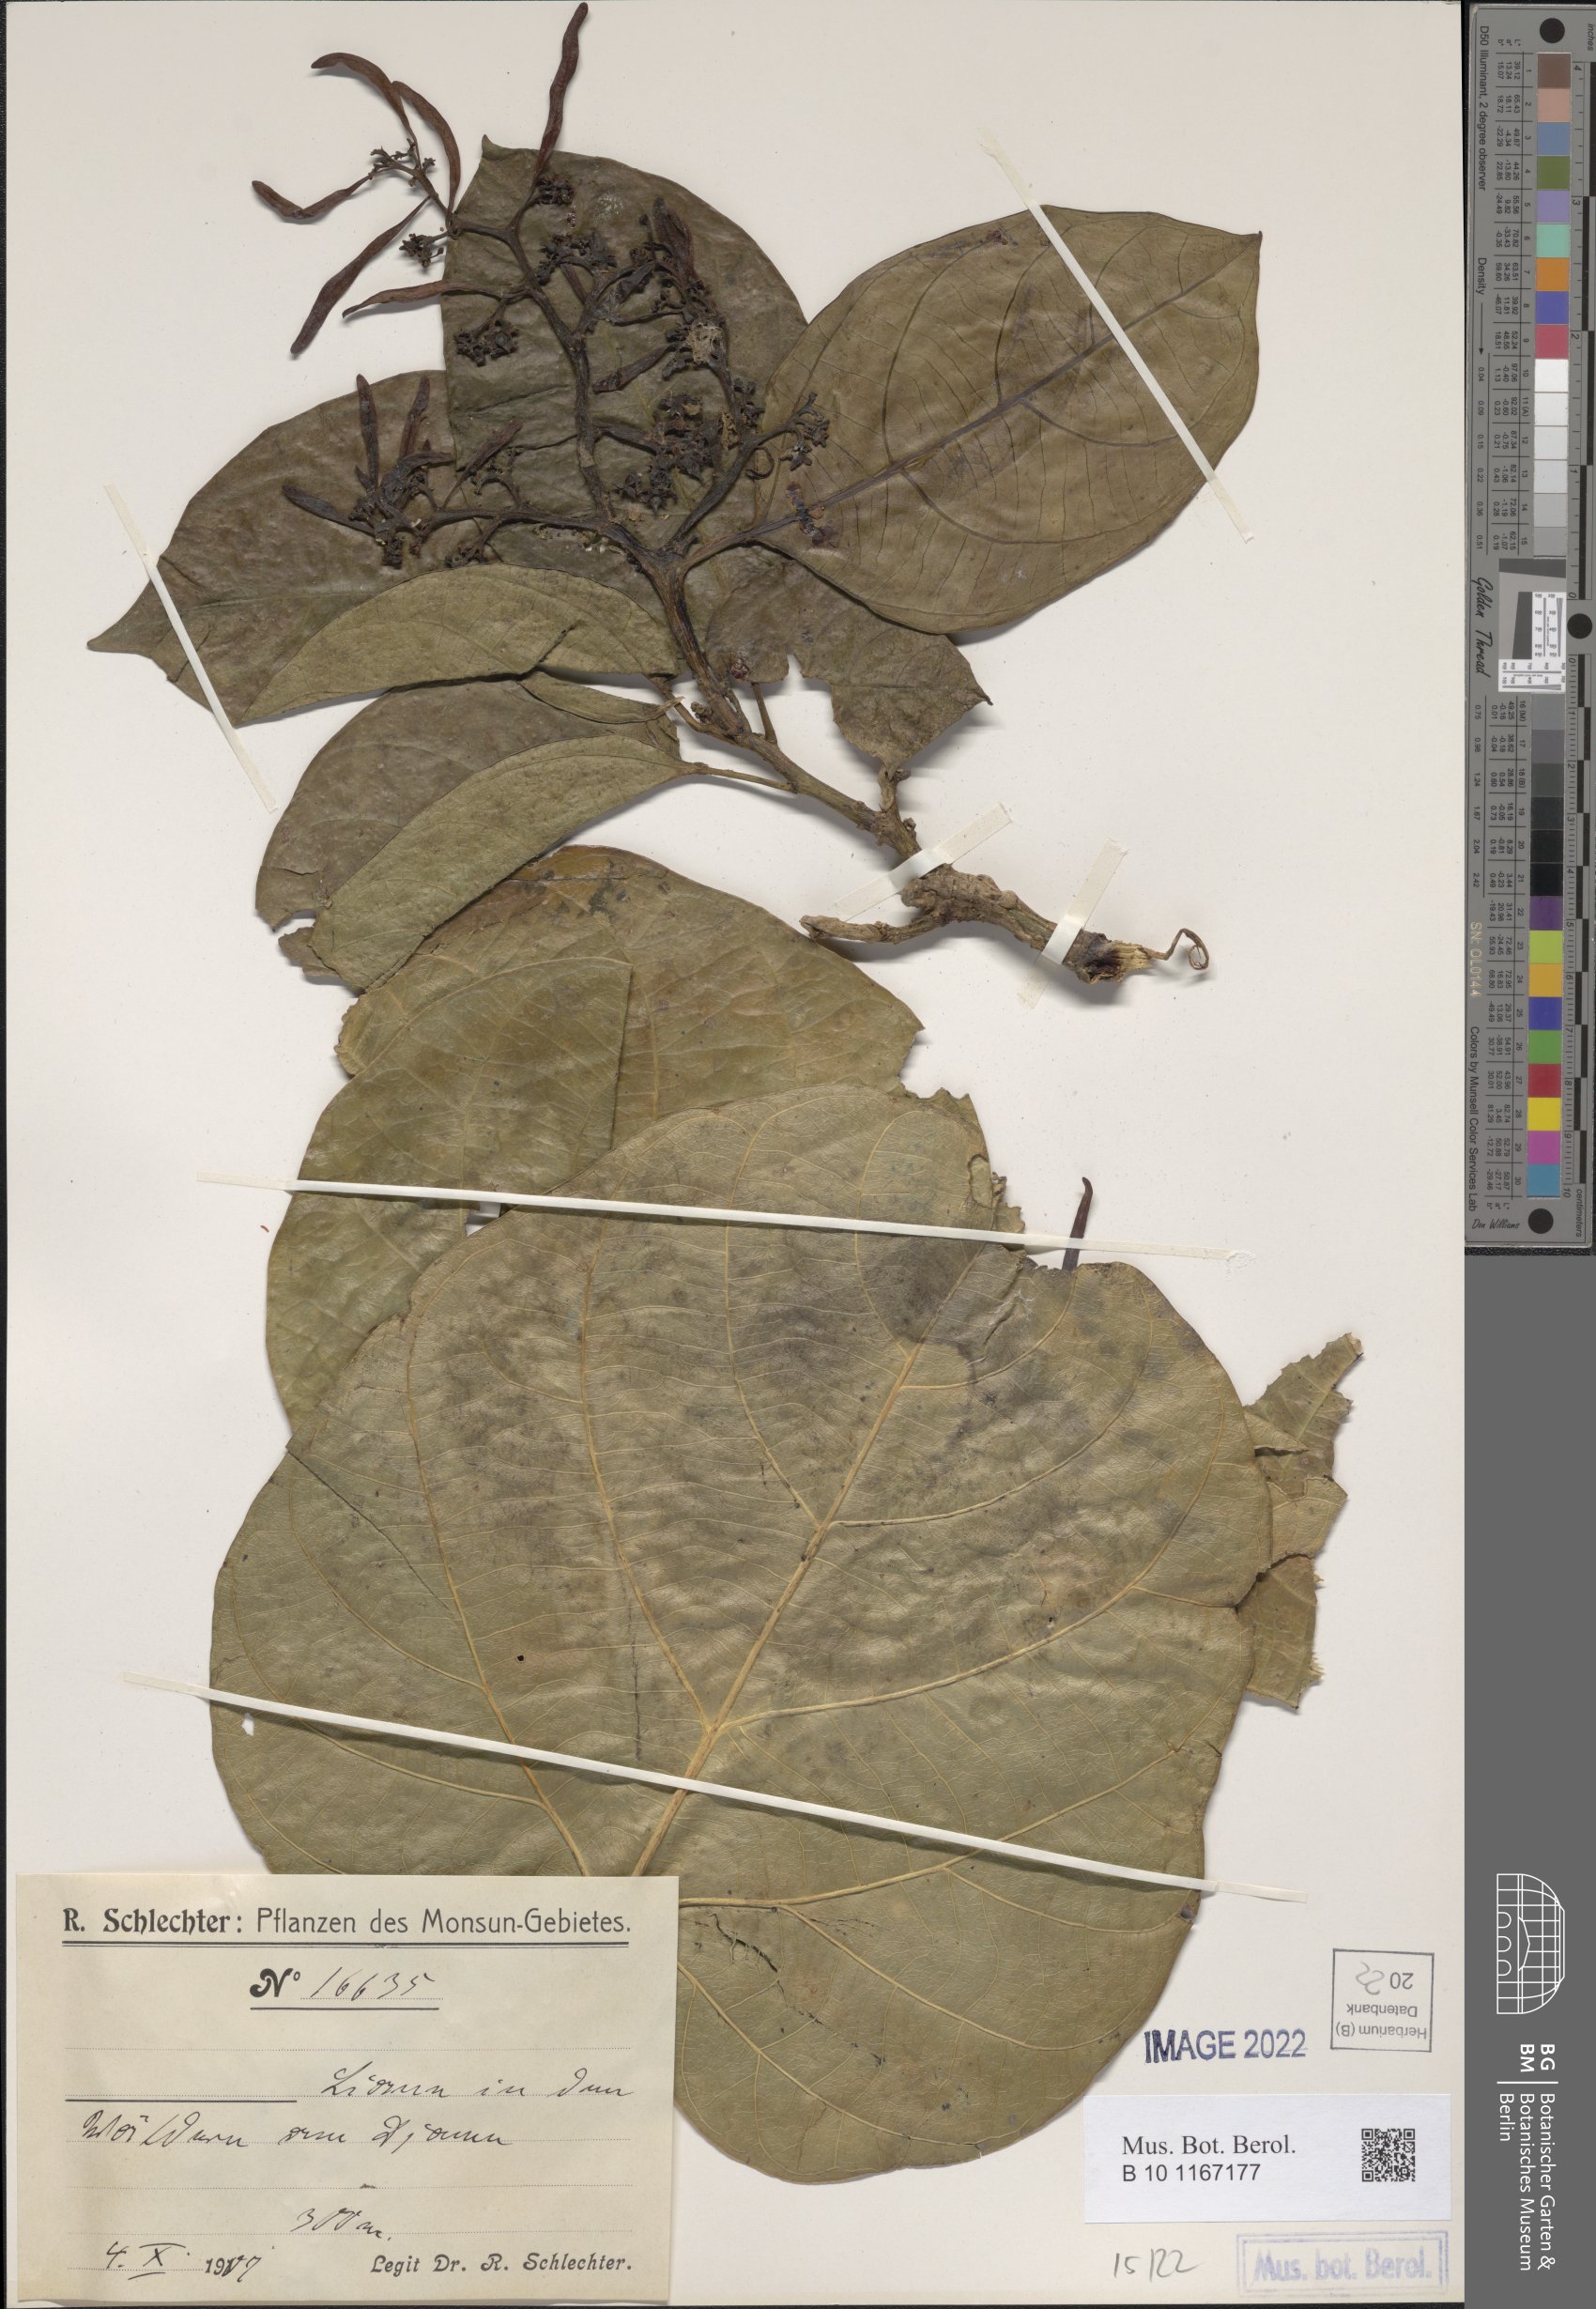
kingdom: Plantae
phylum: Tracheophyta
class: Magnoliopsida
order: Vitales
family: Vitaceae
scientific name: Vitaceae
